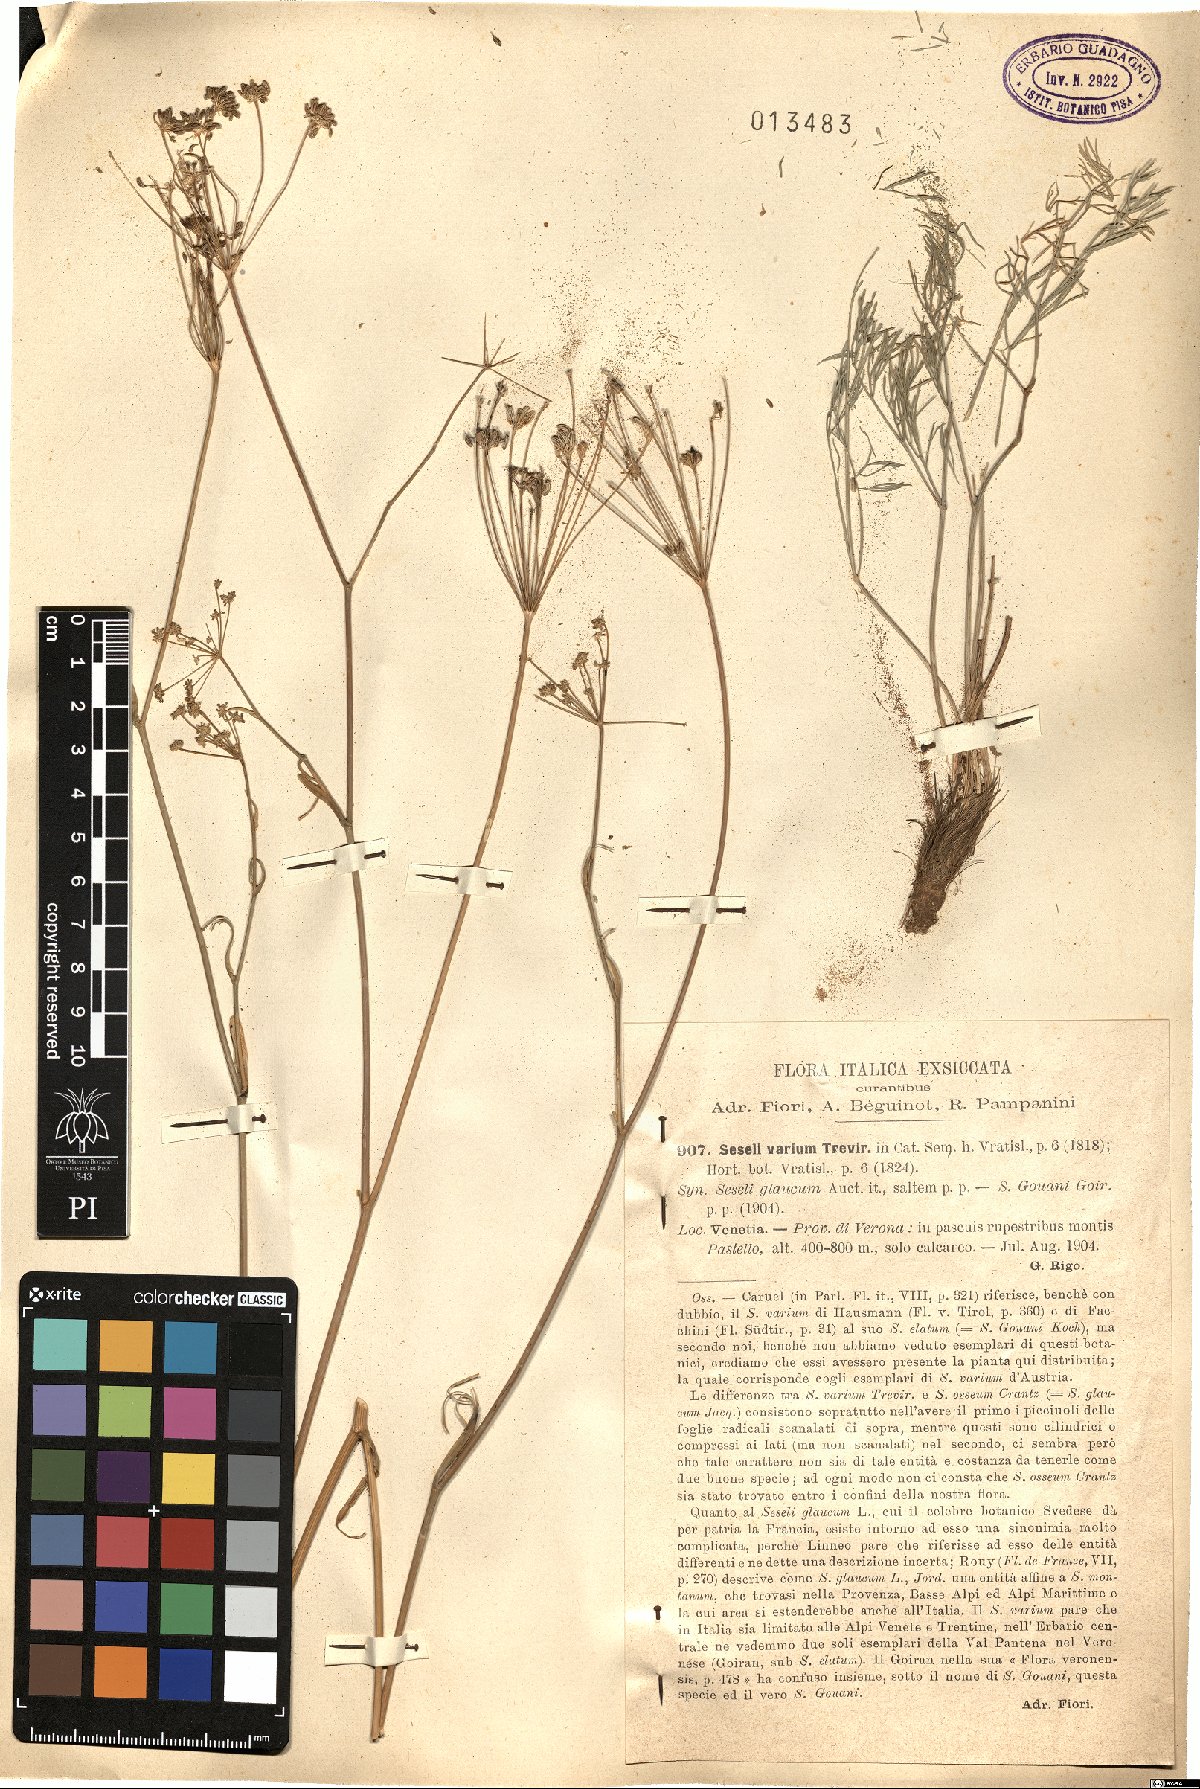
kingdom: Plantae
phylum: Tracheophyta
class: Magnoliopsida
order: Apiales
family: Apiaceae
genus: Seseli
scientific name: Seseli pallasii
